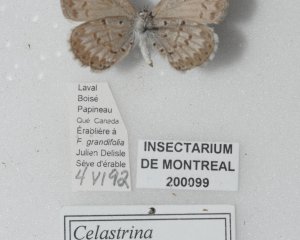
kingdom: Animalia
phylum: Arthropoda
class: Insecta
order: Lepidoptera
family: Lycaenidae
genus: Celastrina
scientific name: Celastrina lucia
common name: Northern Spring Azure
